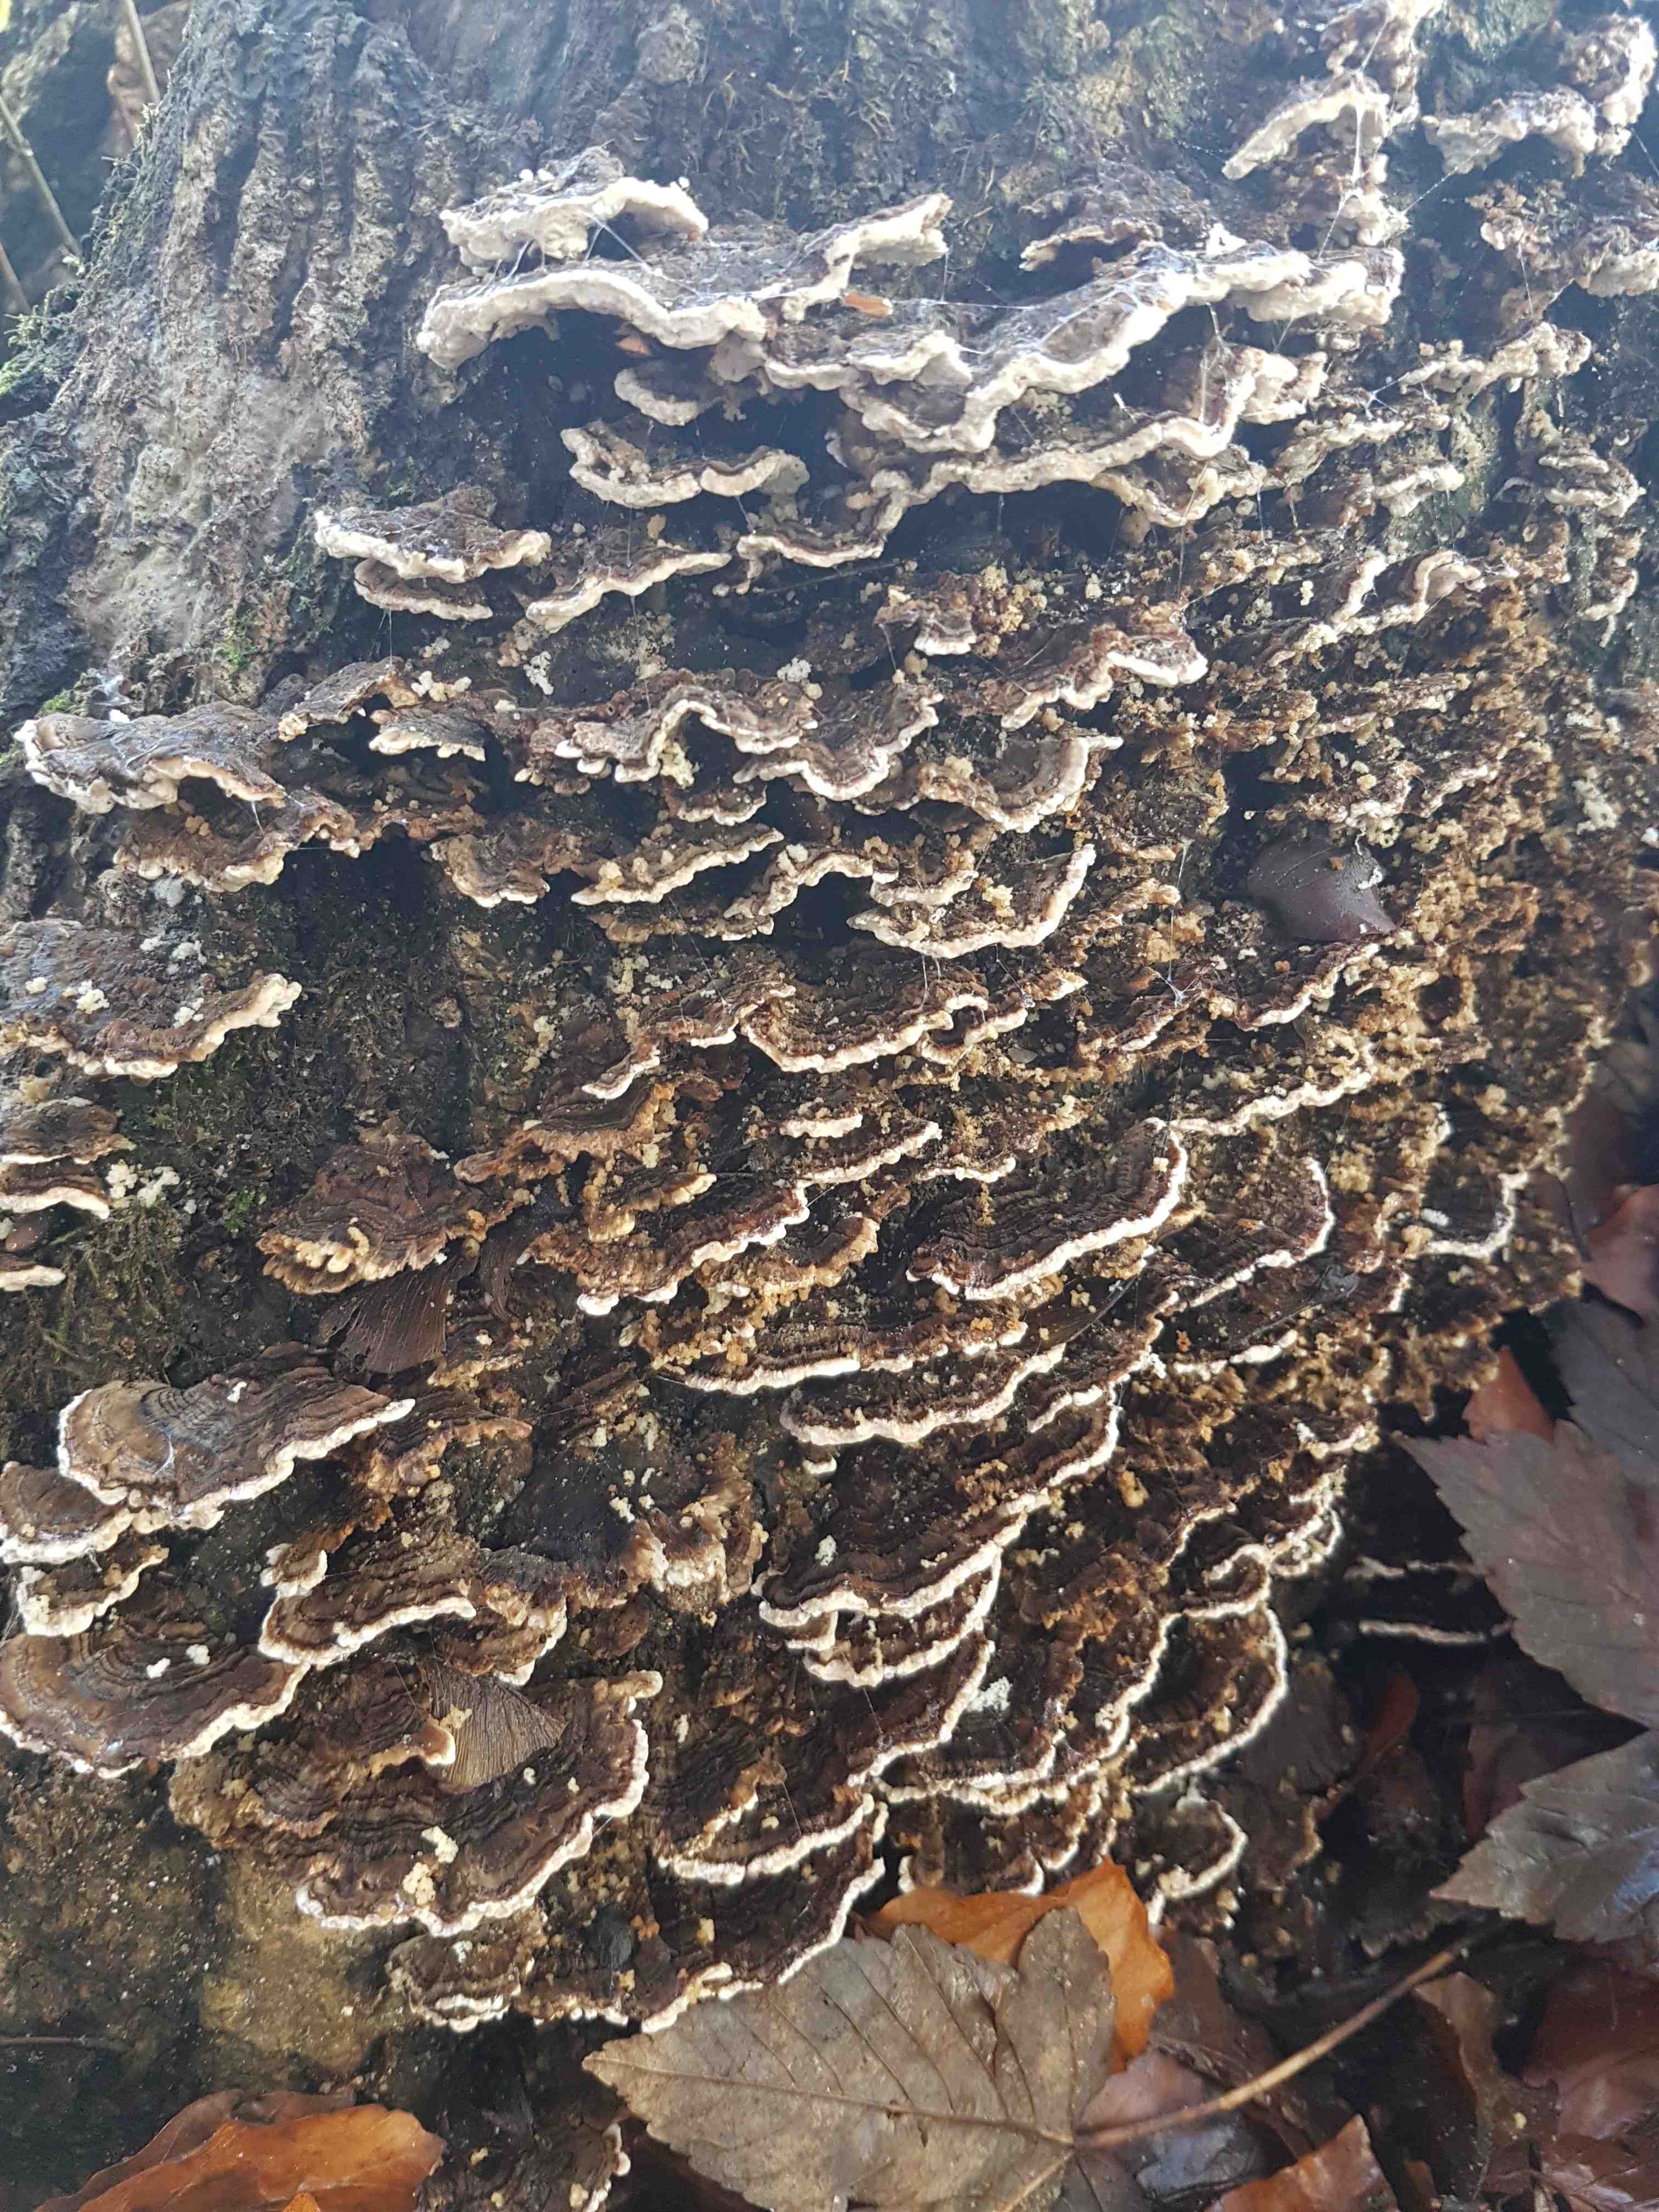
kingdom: Fungi
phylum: Basidiomycota
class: Agaricomycetes
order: Polyporales
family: Polyporaceae
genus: Trametes
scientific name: Trametes versicolor
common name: broget læderporesvamp
